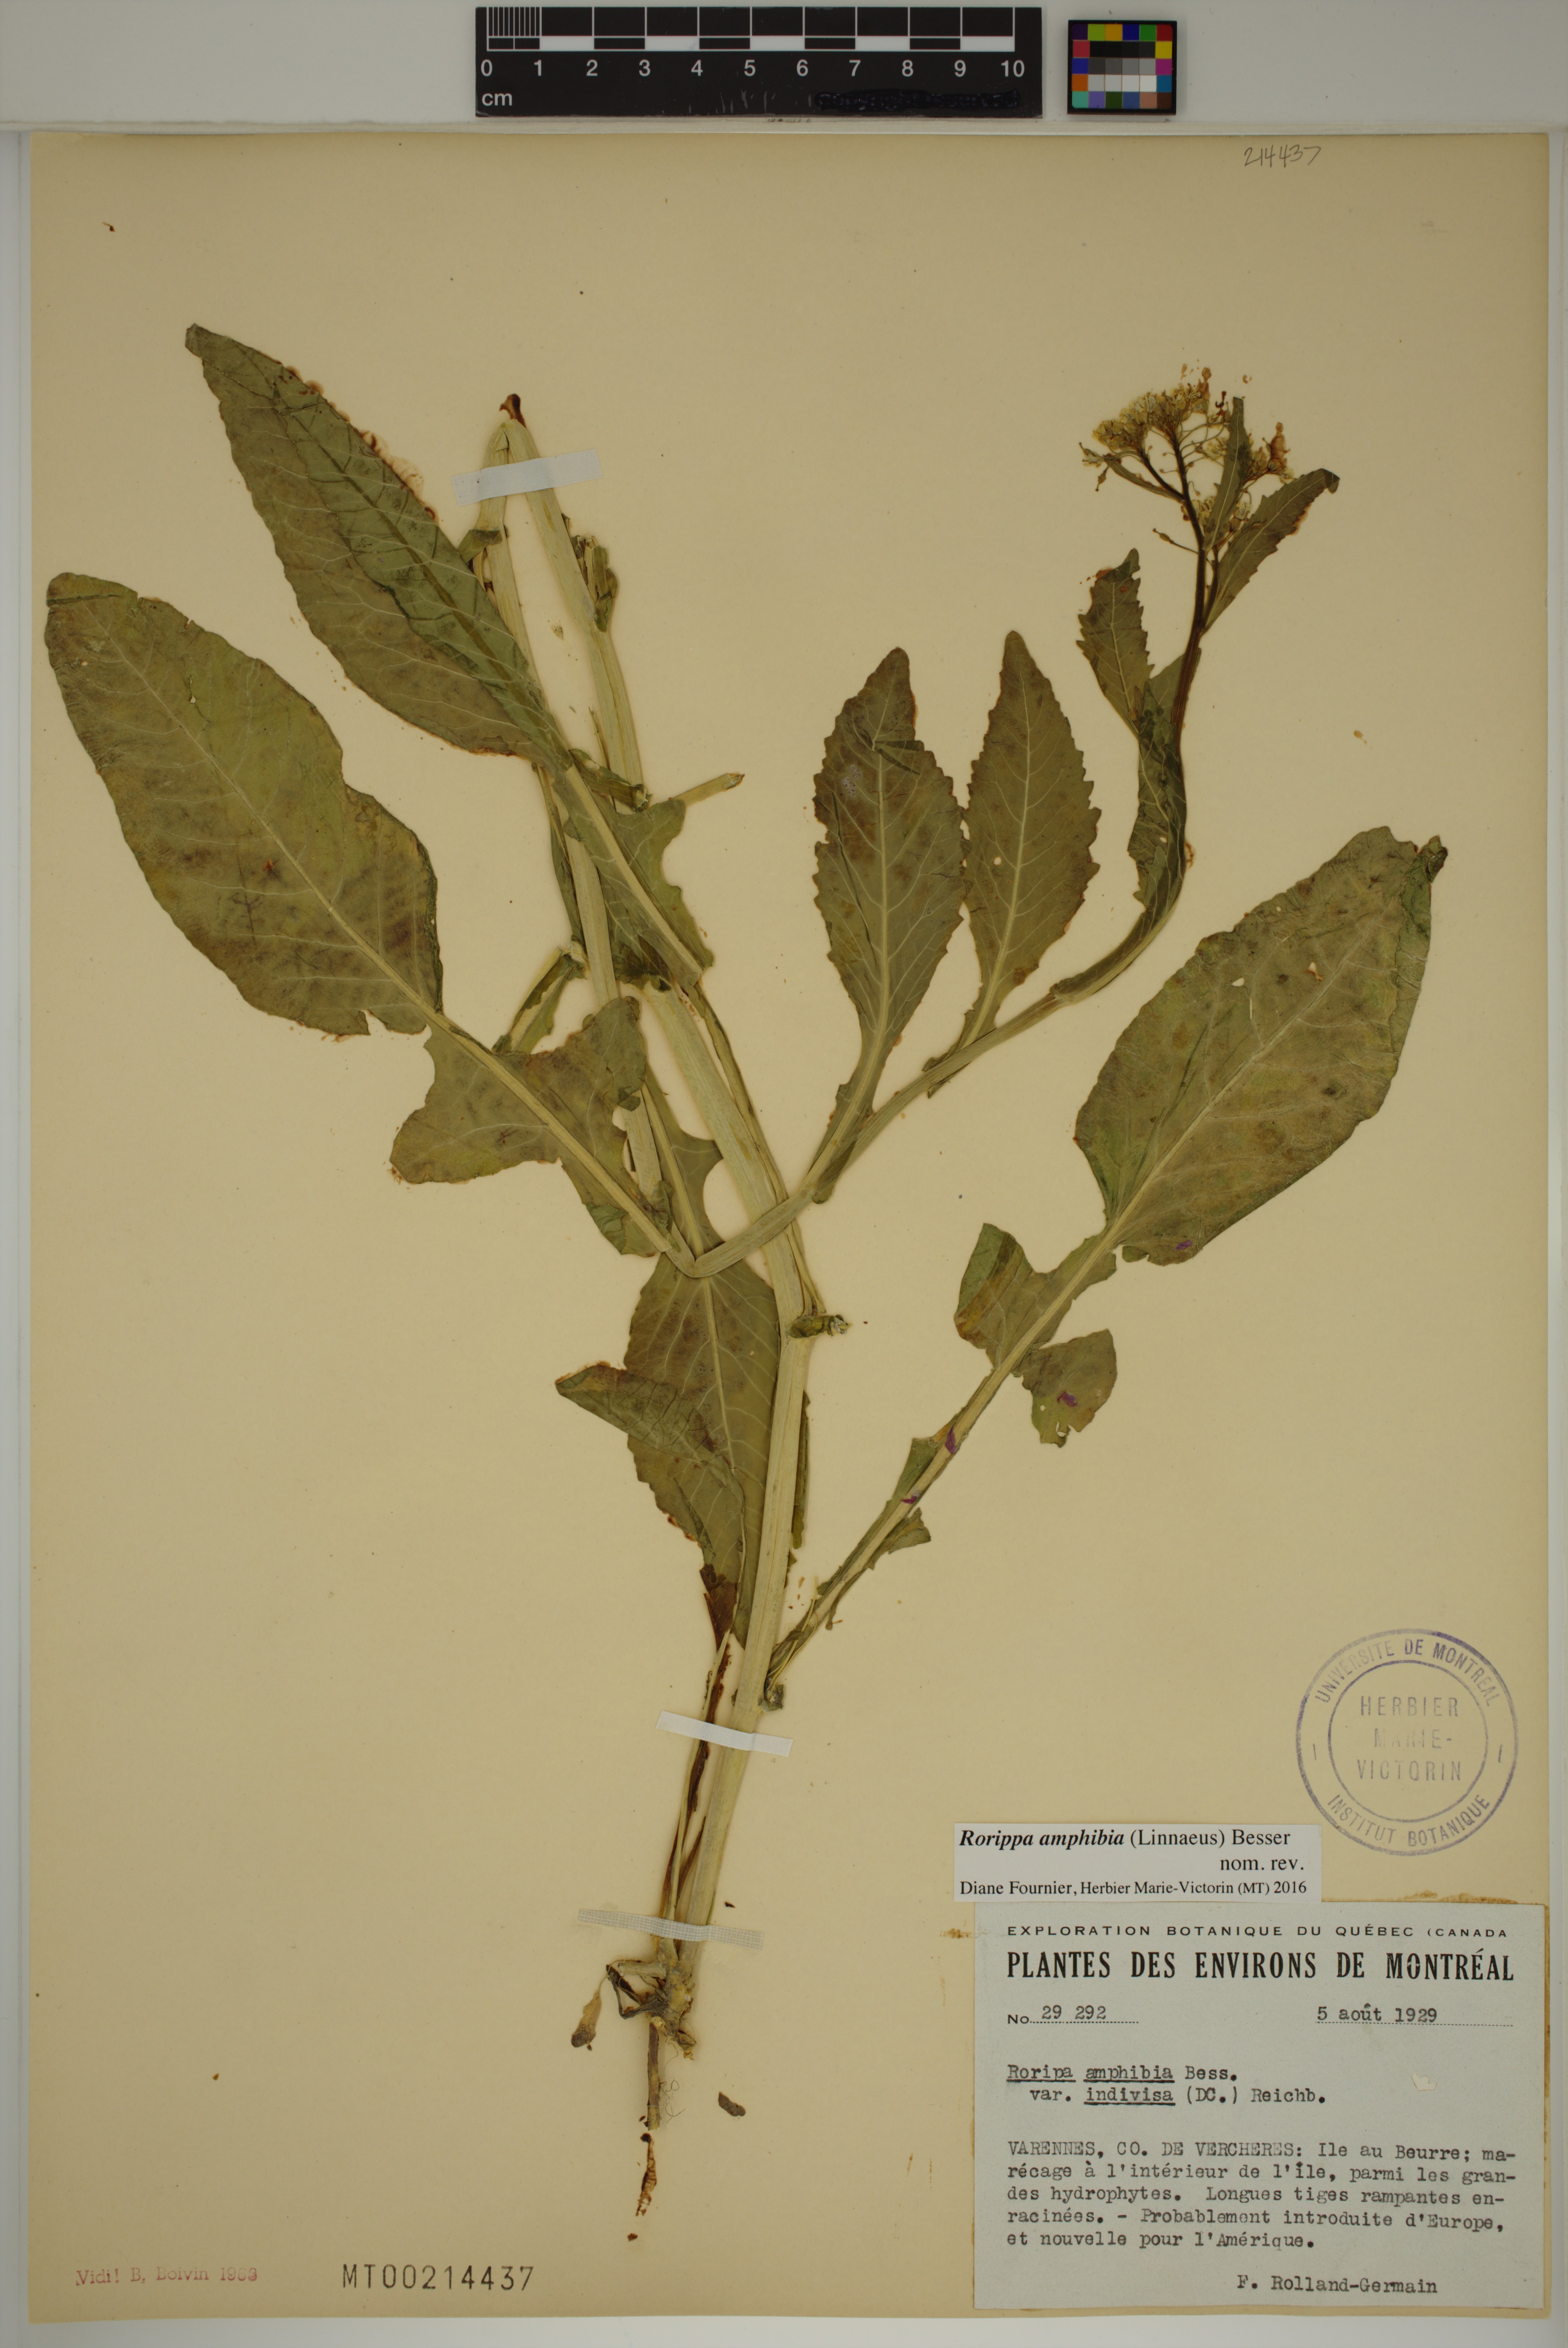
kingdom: Plantae
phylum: Tracheophyta
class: Magnoliopsida
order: Brassicales
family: Brassicaceae
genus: Rorippa
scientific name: Rorippa amphibia
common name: Great yellow-cress
